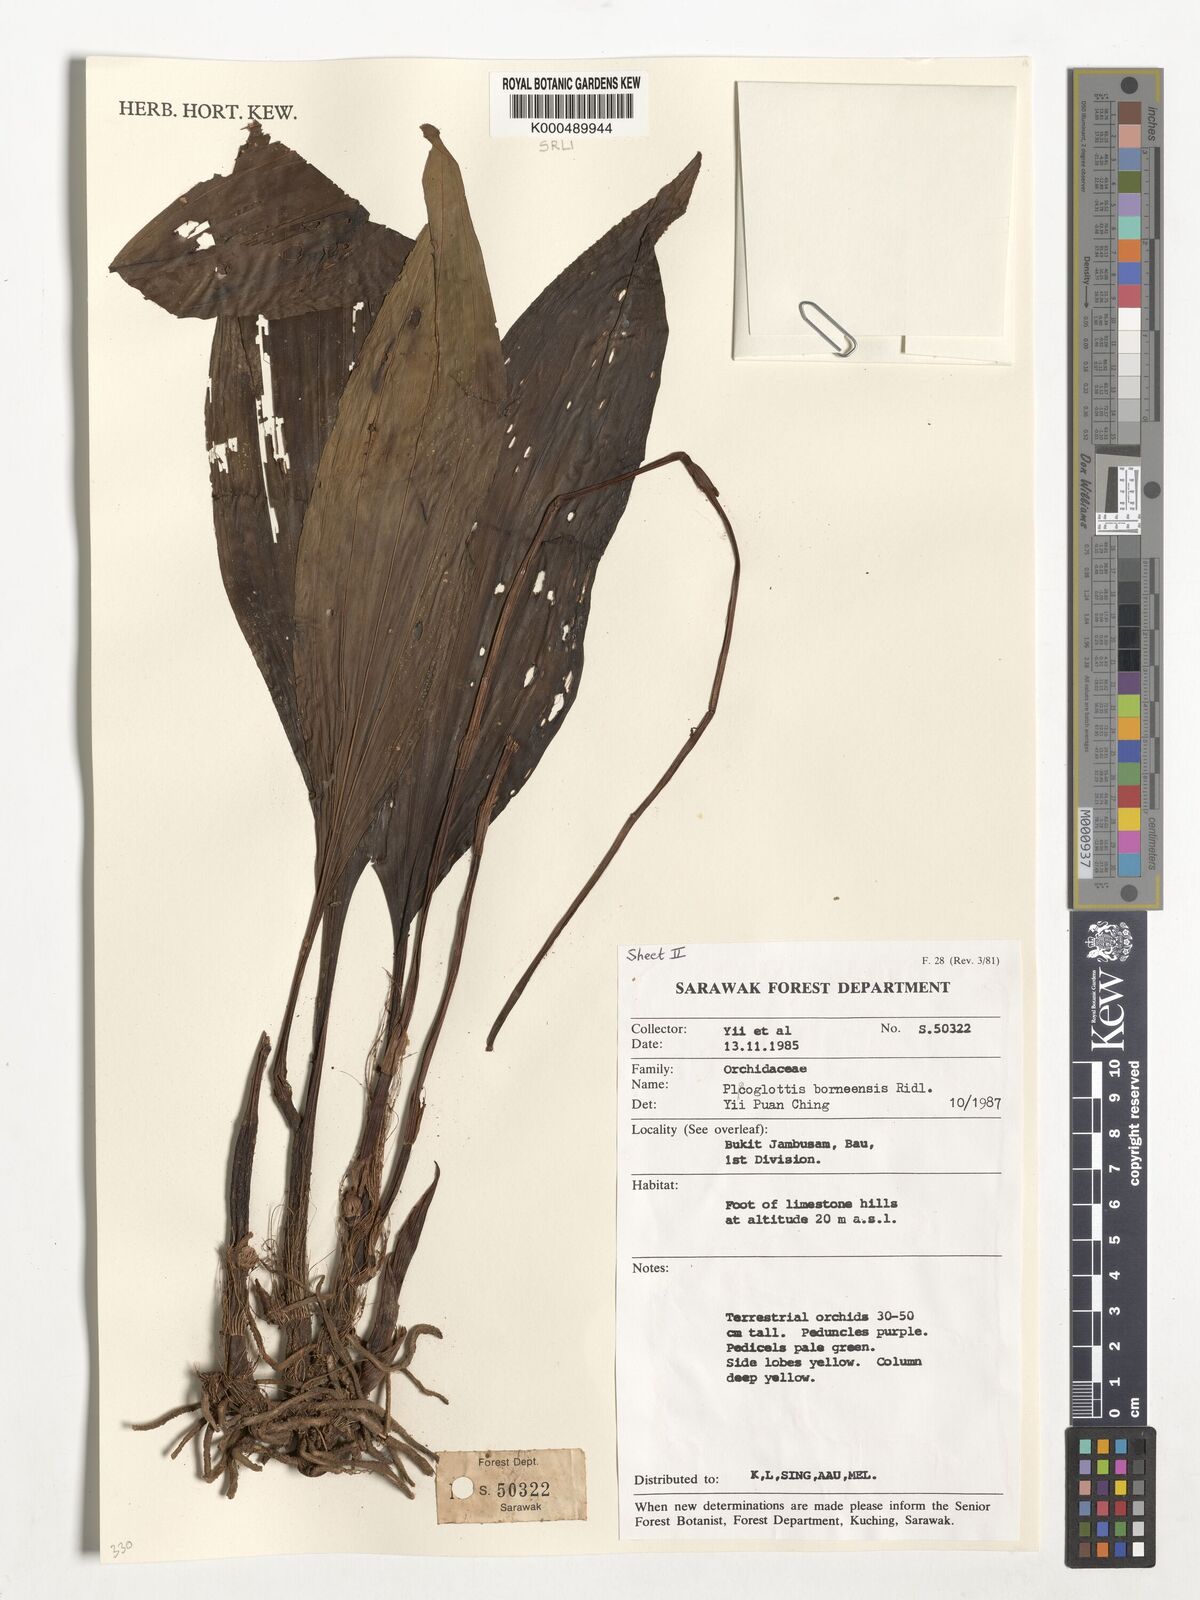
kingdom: Plantae
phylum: Tracheophyta
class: Liliopsida
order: Asparagales
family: Orchidaceae
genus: Plocoglottis
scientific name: Plocoglottis borneensis
